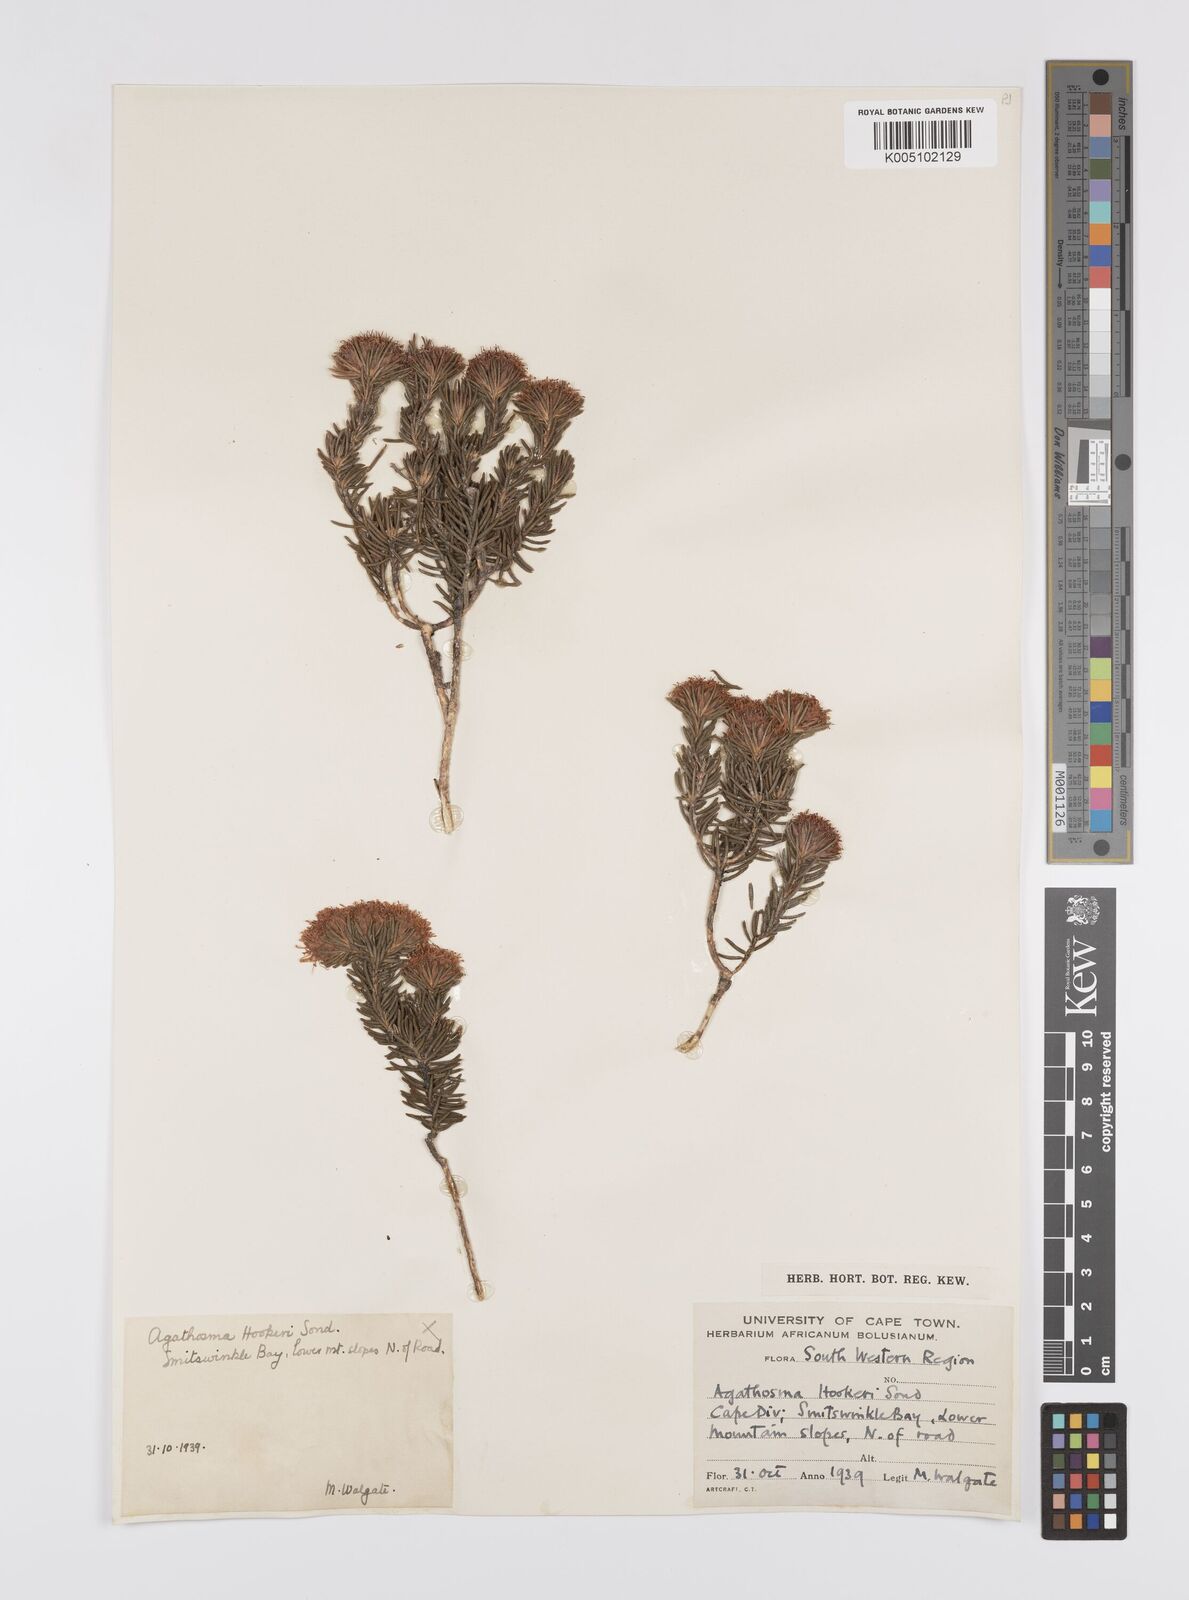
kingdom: Plantae
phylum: Tracheophyta
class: Magnoliopsida
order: Sapindales
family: Rutaceae
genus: Agathosma
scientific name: Agathosma hookeri
